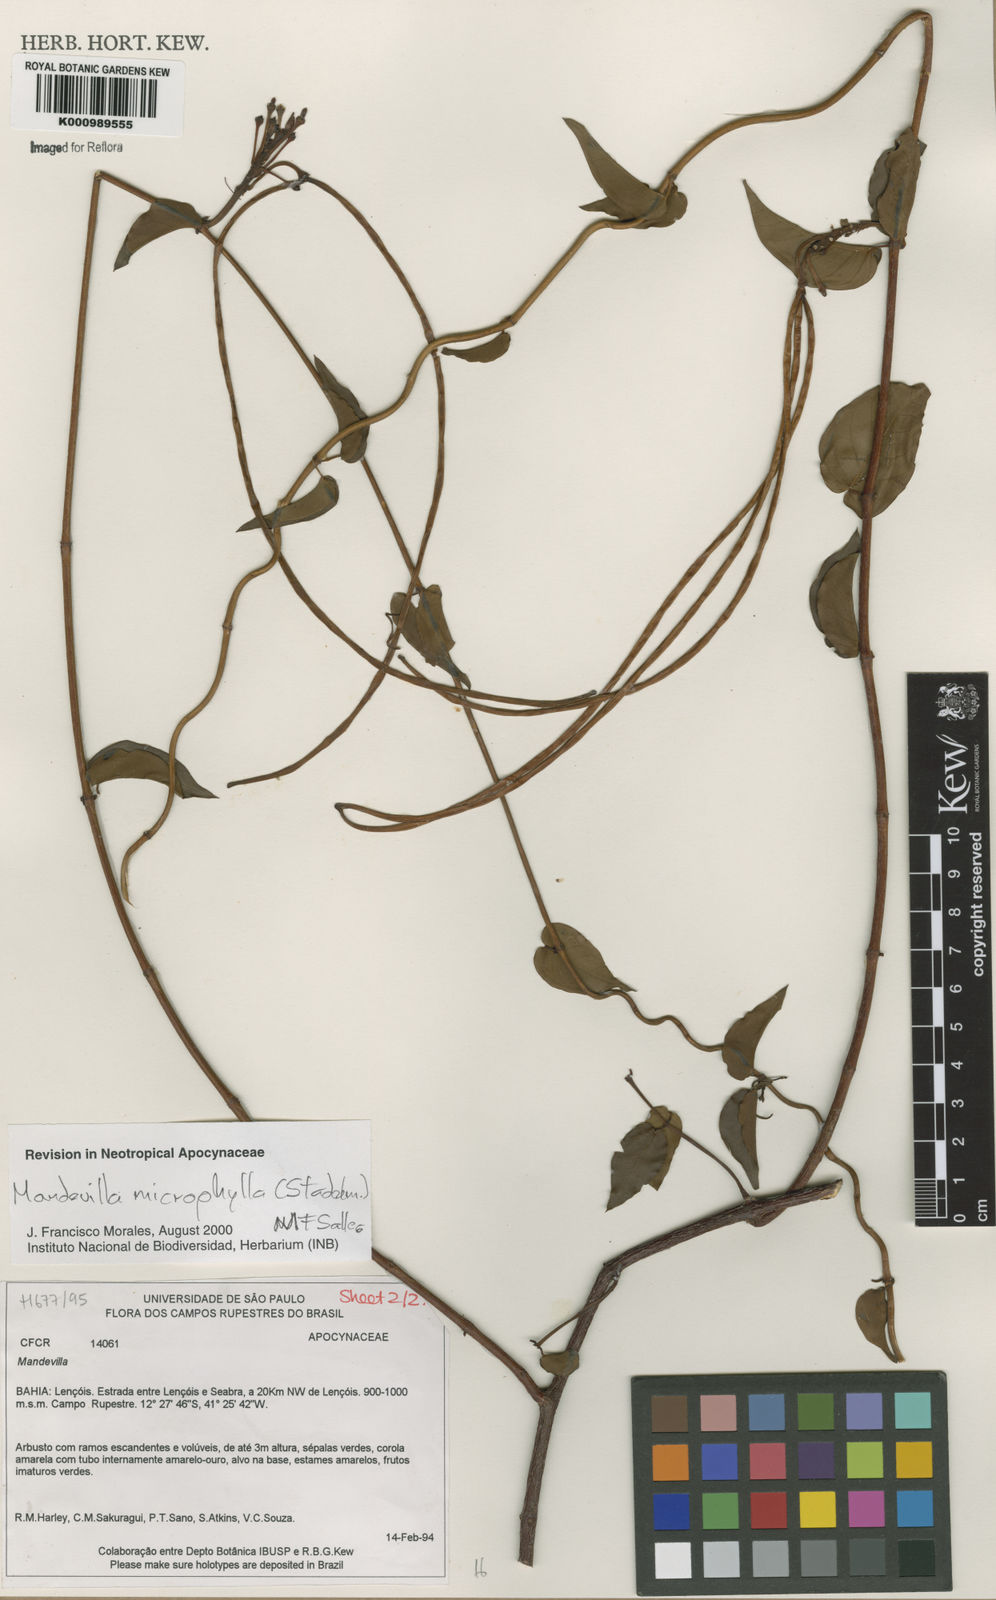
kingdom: Plantae
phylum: Tracheophyta
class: Magnoliopsida
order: Gentianales
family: Apocynaceae
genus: Mandevilla
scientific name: Mandevilla
